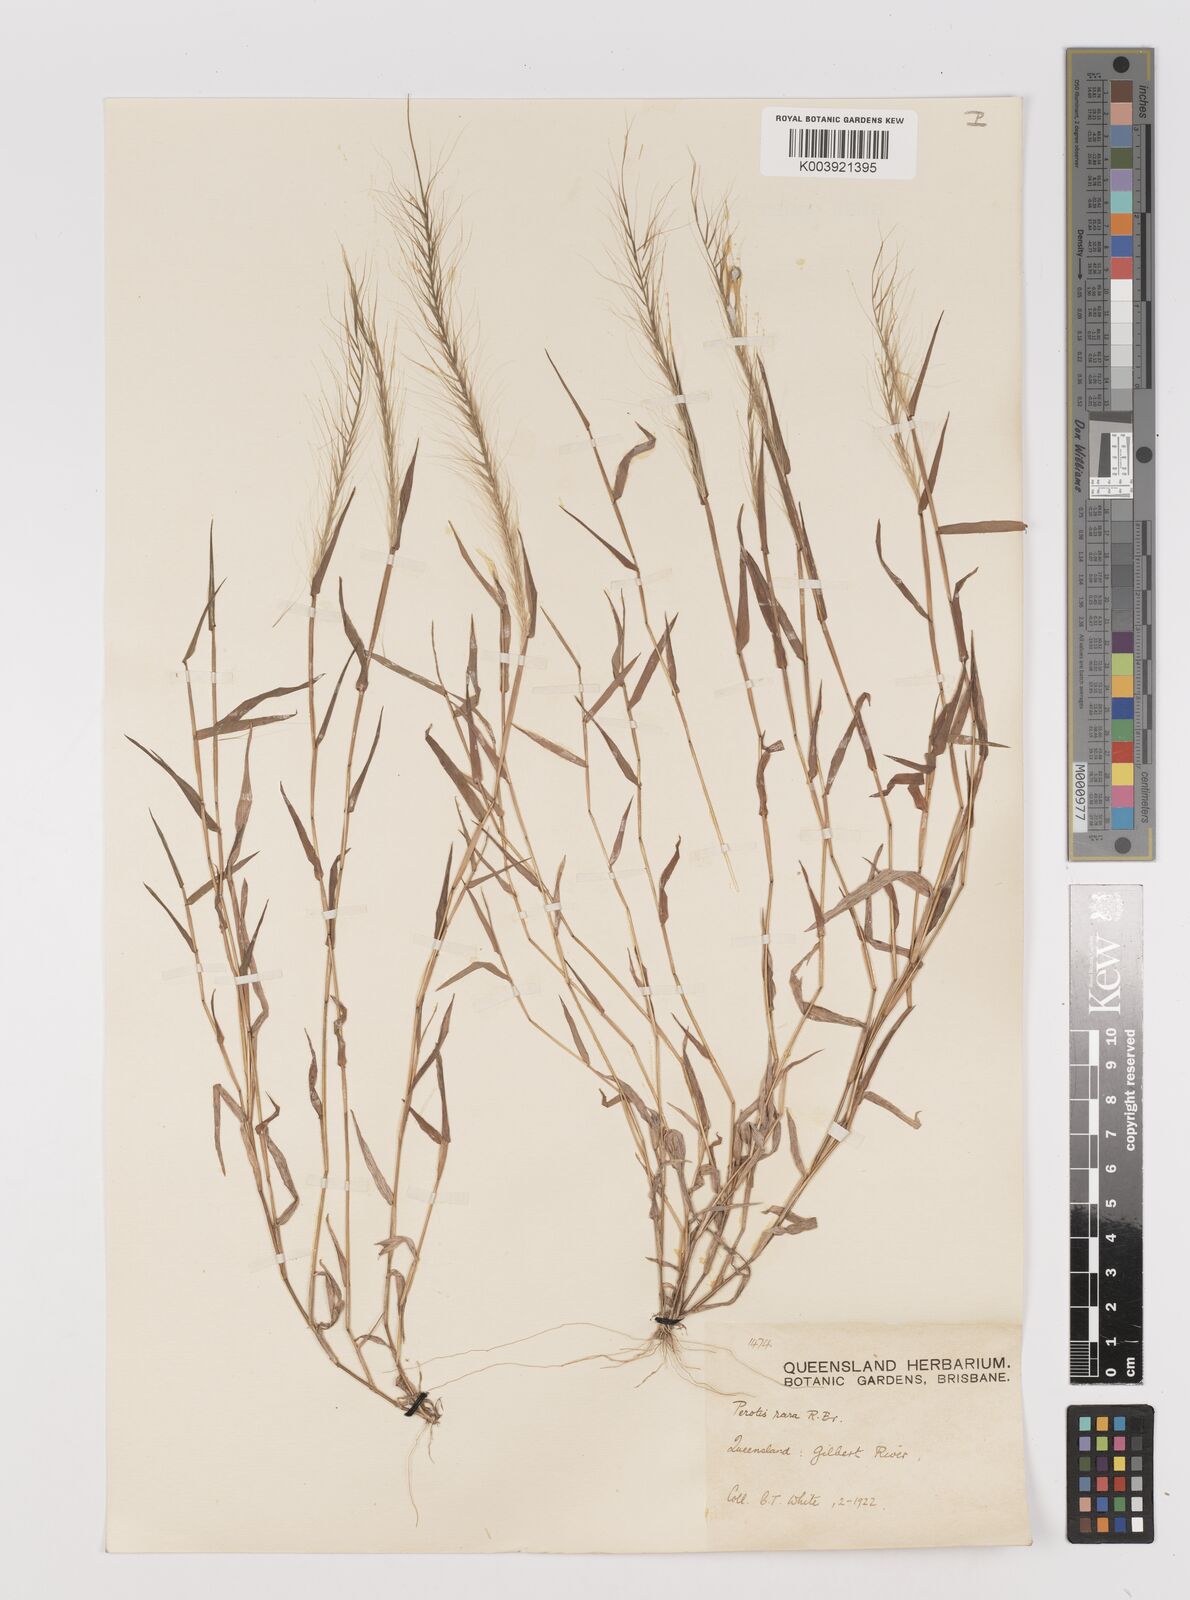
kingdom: Plantae
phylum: Tracheophyta
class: Liliopsida
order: Poales
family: Poaceae
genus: Perotis
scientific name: Perotis rara
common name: Comet grass
